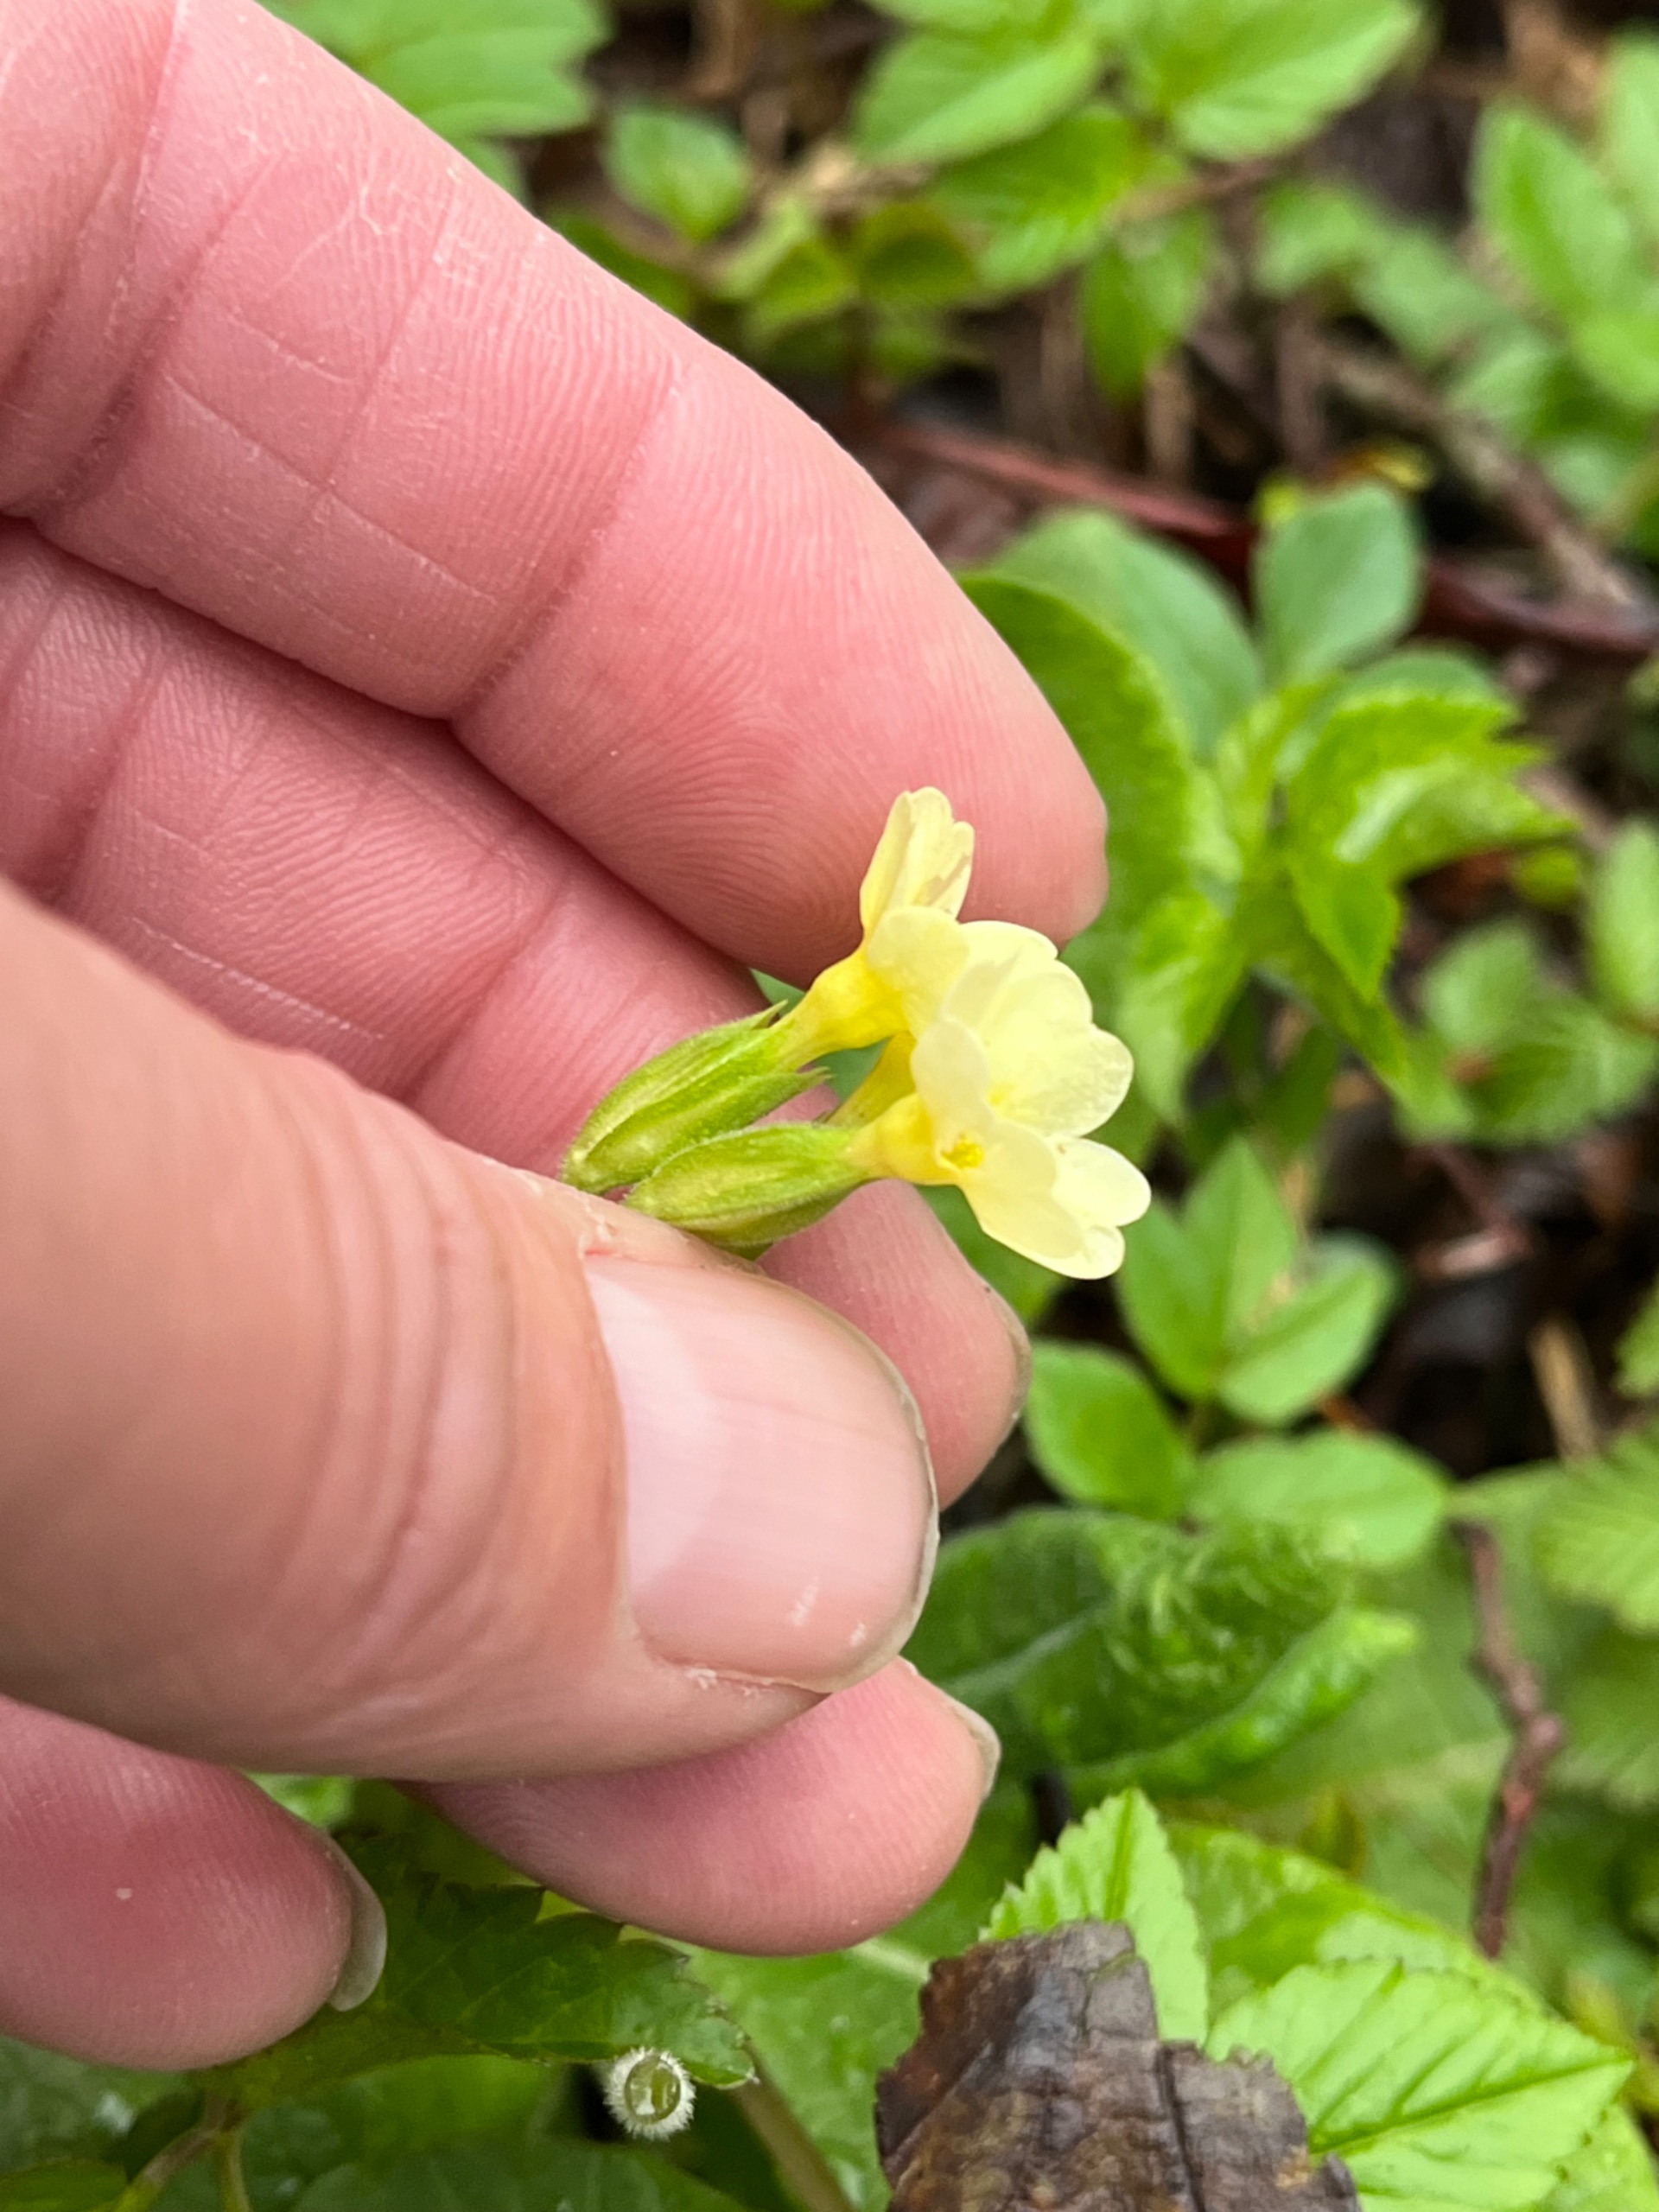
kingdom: Plantae
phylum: Tracheophyta
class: Magnoliopsida
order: Ericales
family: Primulaceae
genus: Primula
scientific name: Primula elatior
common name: Fladkravet kodriver
